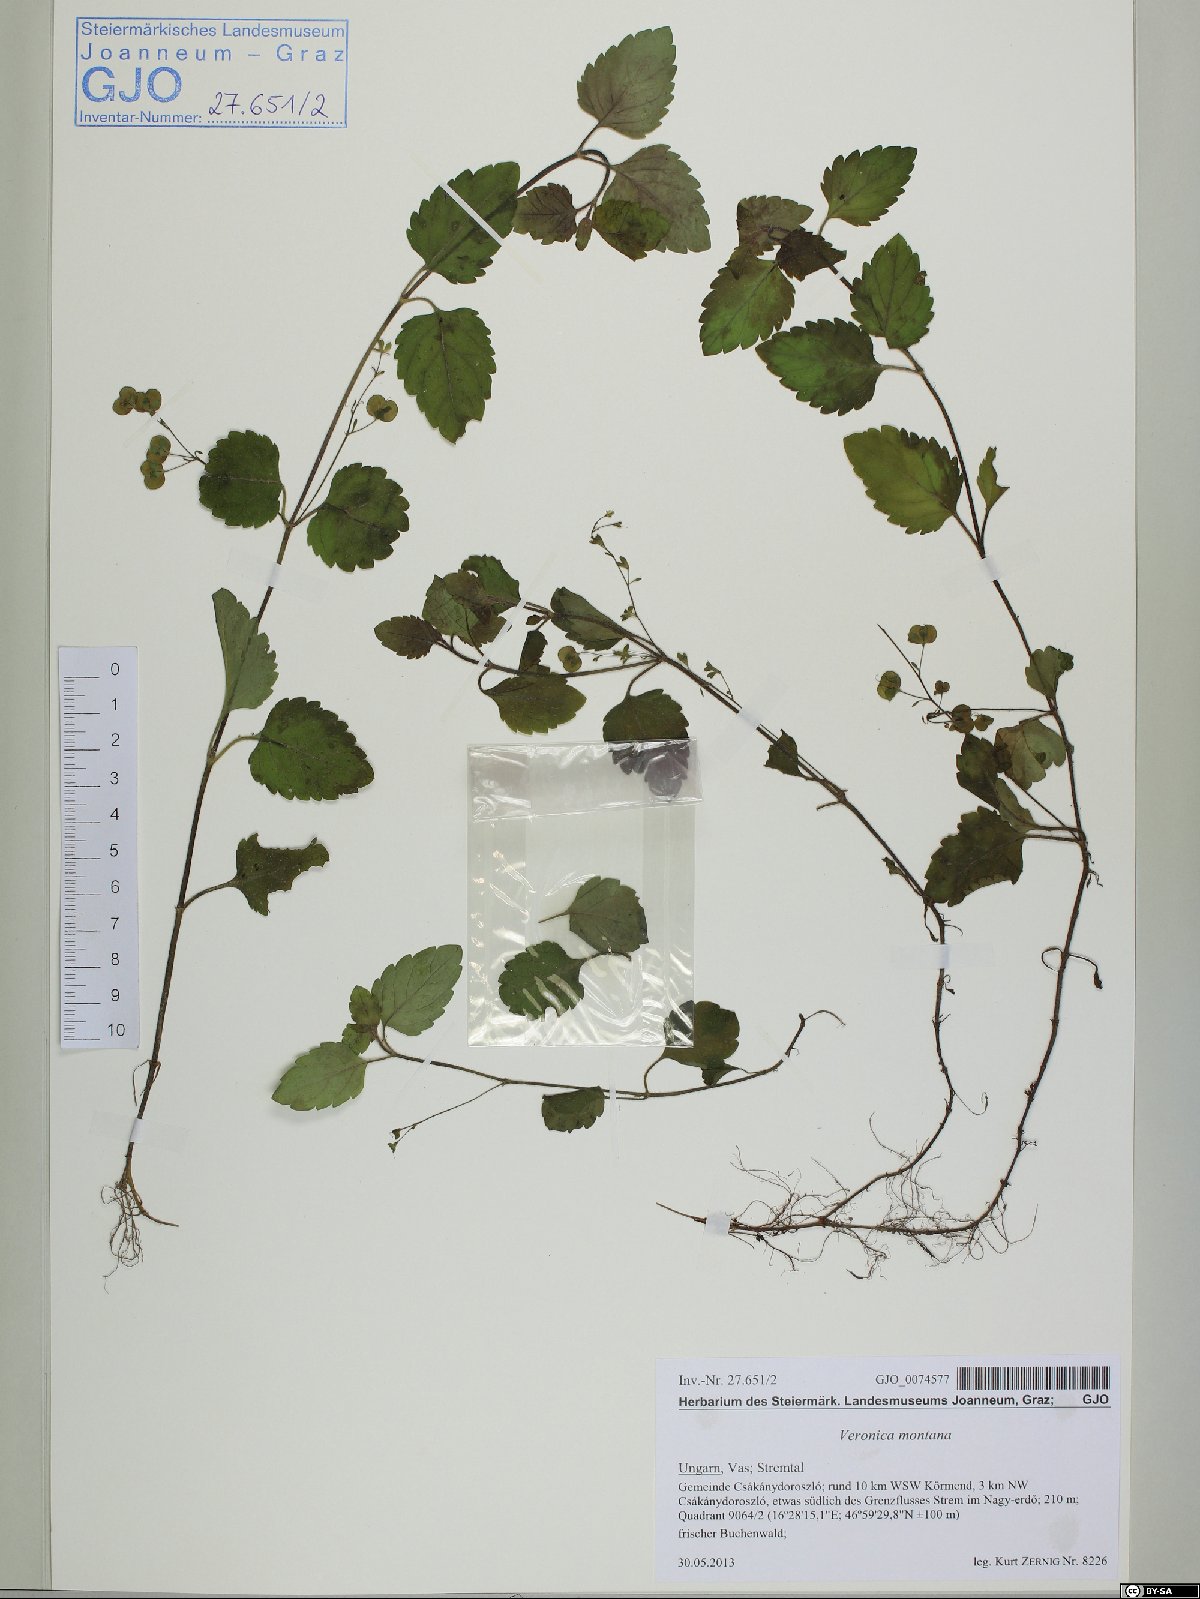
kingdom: Plantae
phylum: Tracheophyta
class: Magnoliopsida
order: Lamiales
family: Plantaginaceae
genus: Veronica
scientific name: Veronica montana
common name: Wood speedwell
